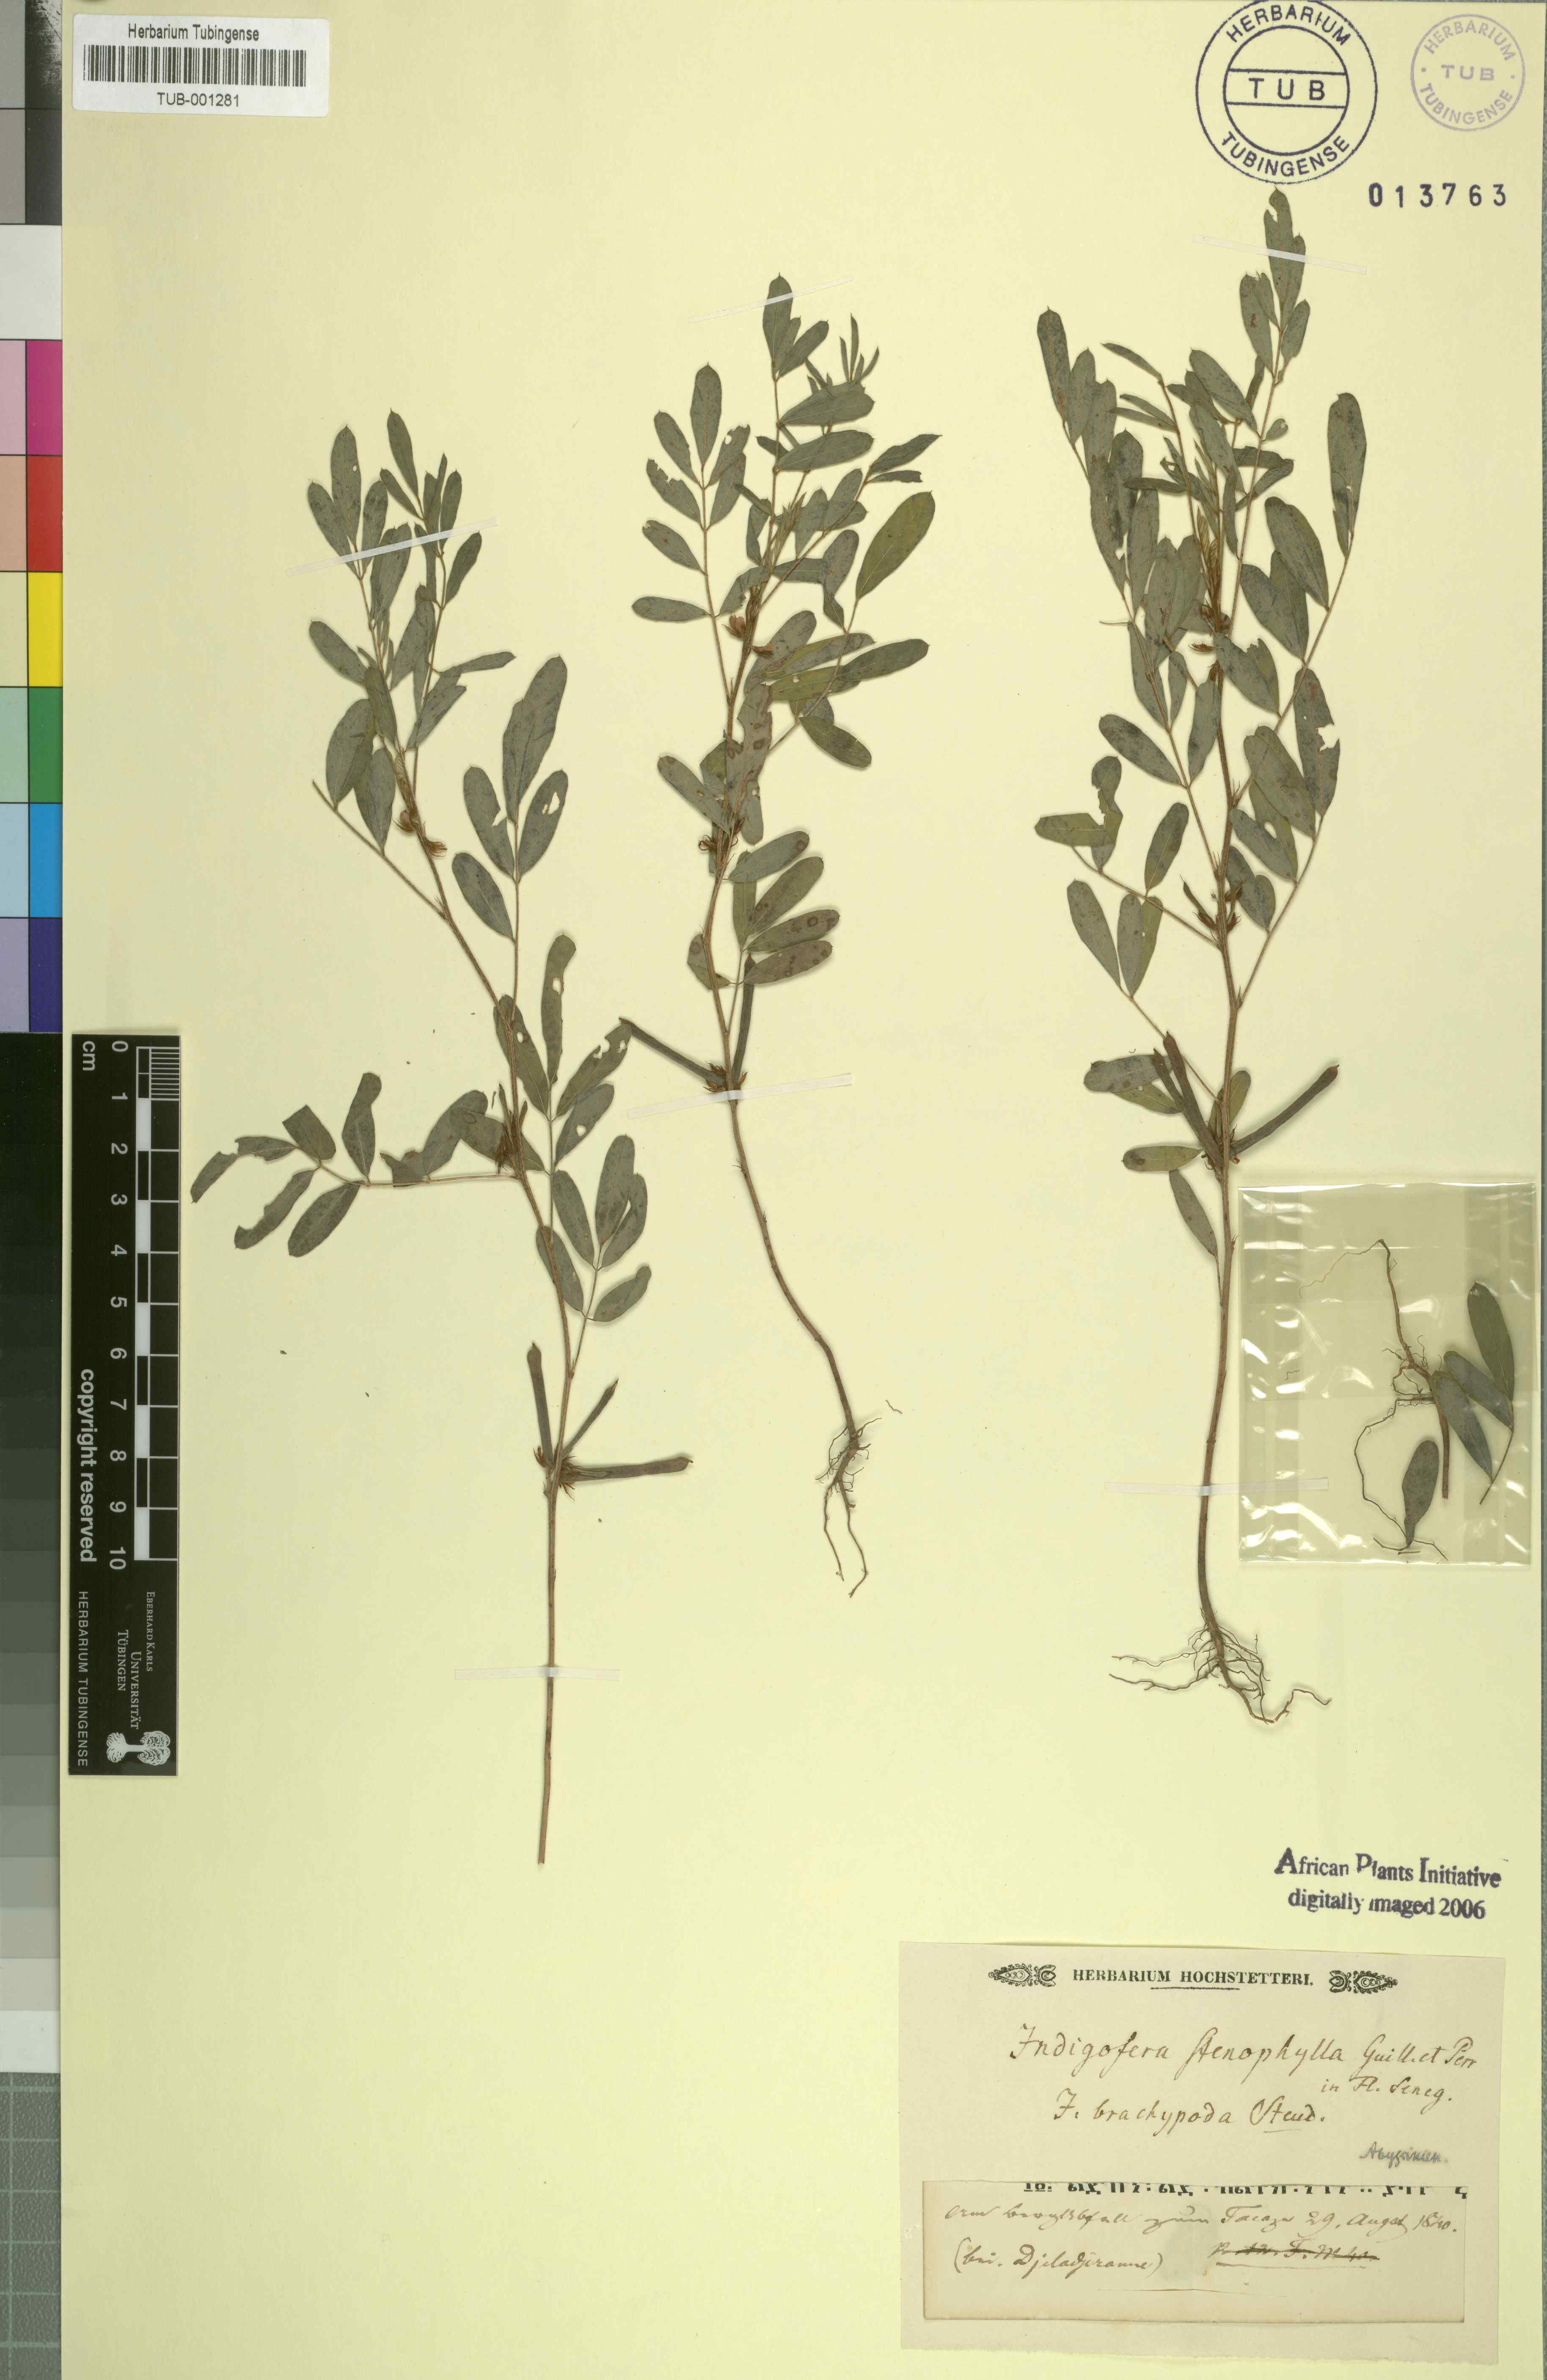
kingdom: Plantae
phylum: Tracheophyta
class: Magnoliopsida
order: Fabales
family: Fabaceae
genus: Indigofera
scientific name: Indigofera stenophylla
